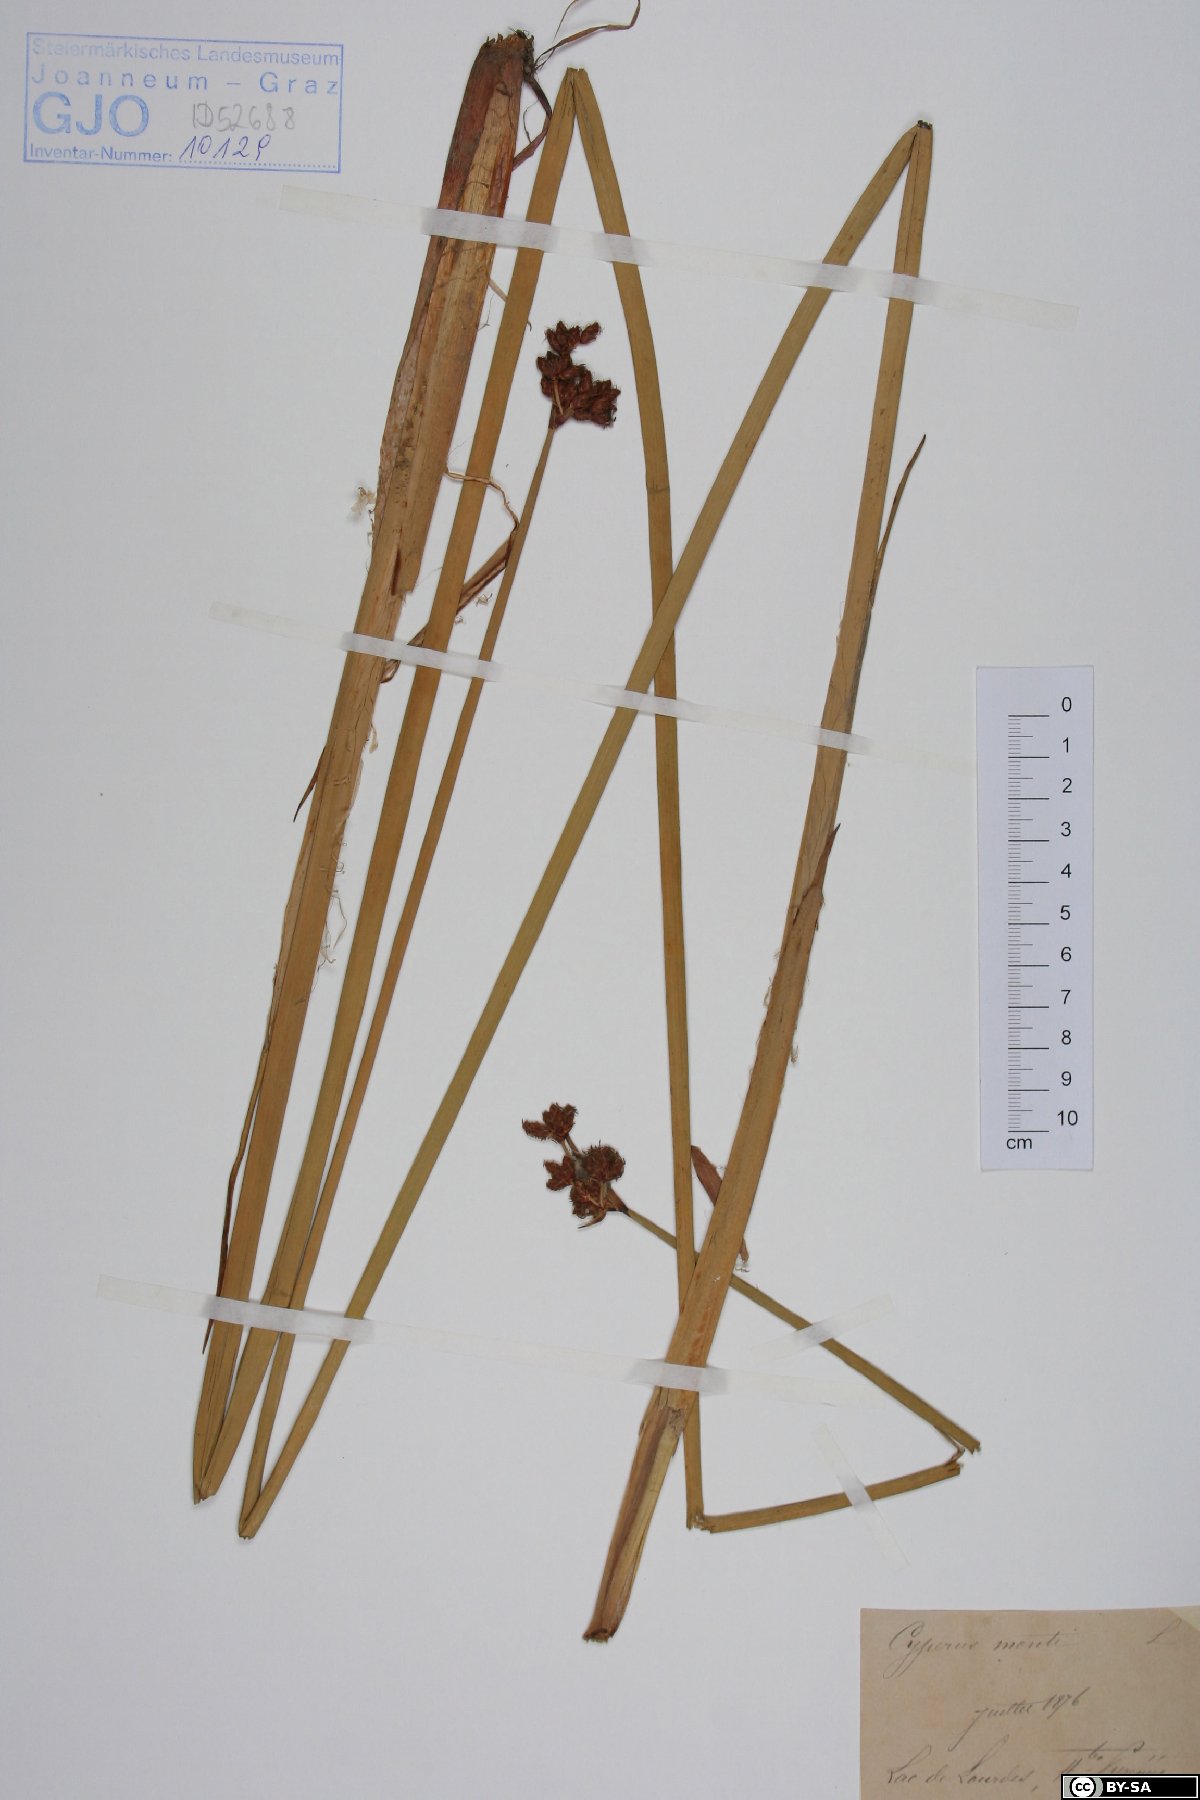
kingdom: Plantae
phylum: Tracheophyta
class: Liliopsida
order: Poales
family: Cyperaceae
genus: Cyperus
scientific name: Cyperus serotinus
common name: Tidalmarsh flatsedge
